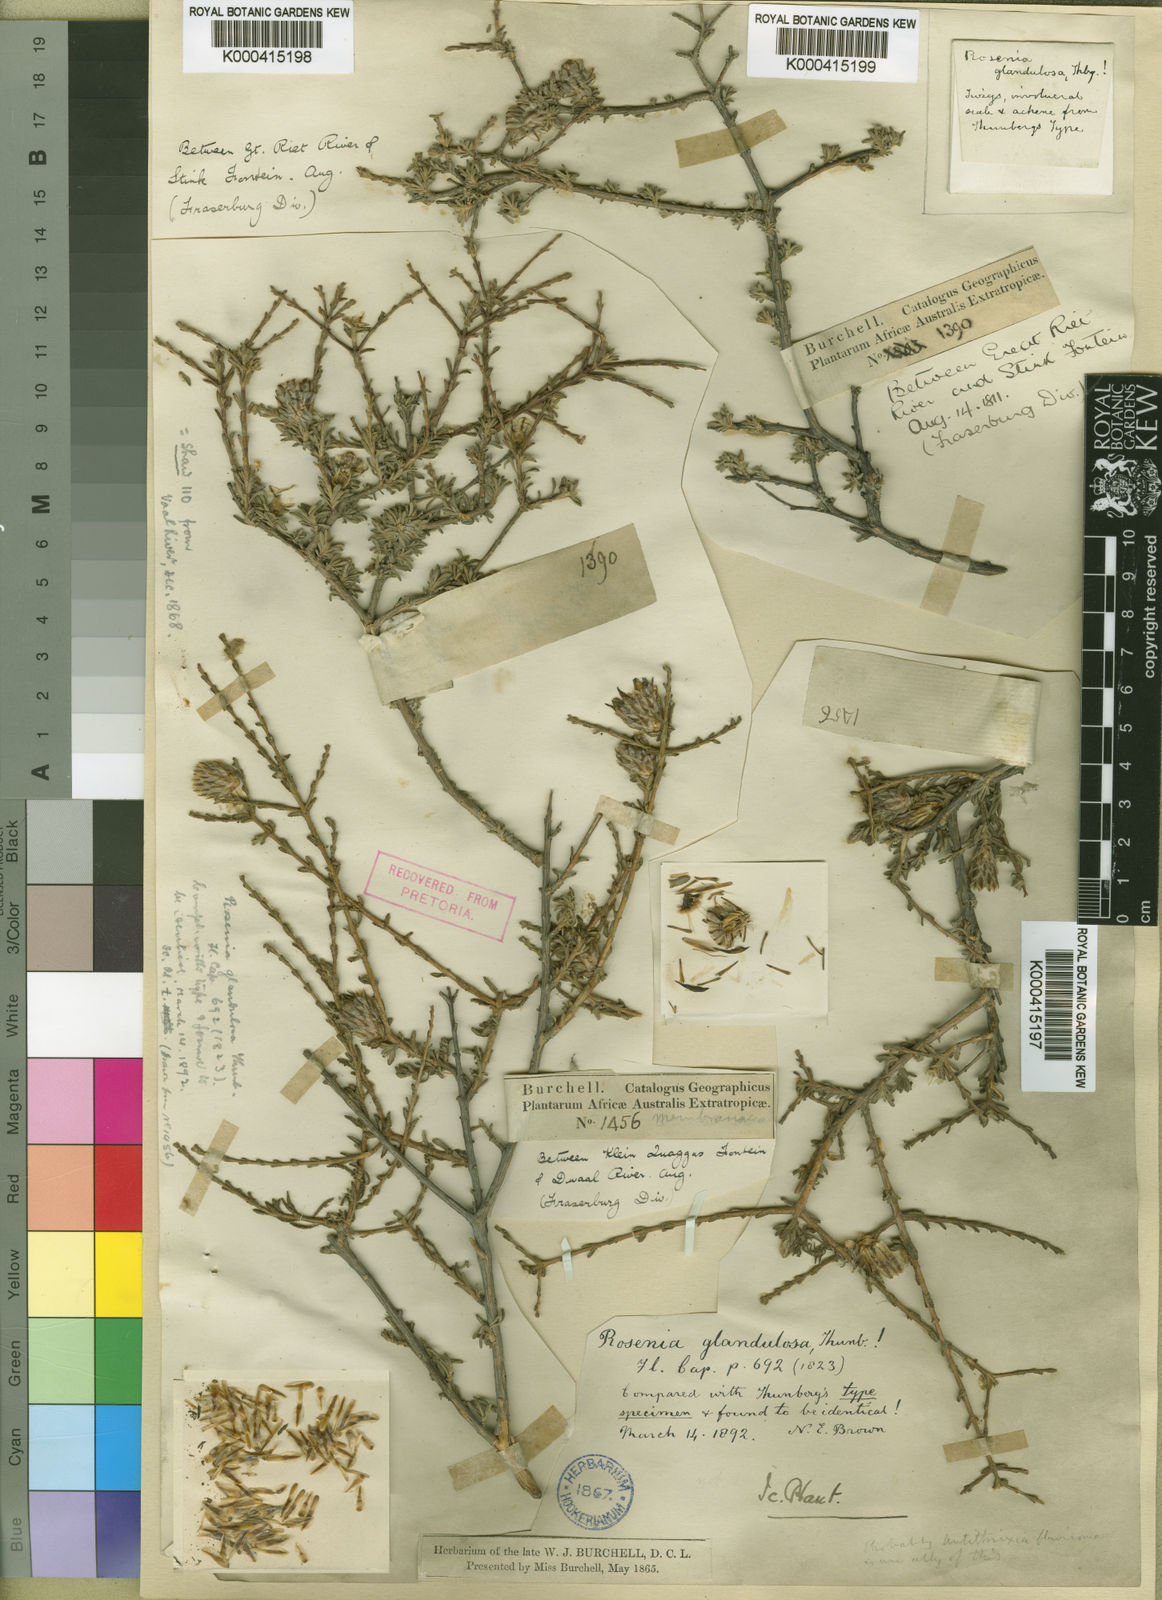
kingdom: Plantae
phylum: Tracheophyta
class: Magnoliopsida
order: Asterales
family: Asteraceae
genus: Oedera
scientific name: Oedera glandulosa
